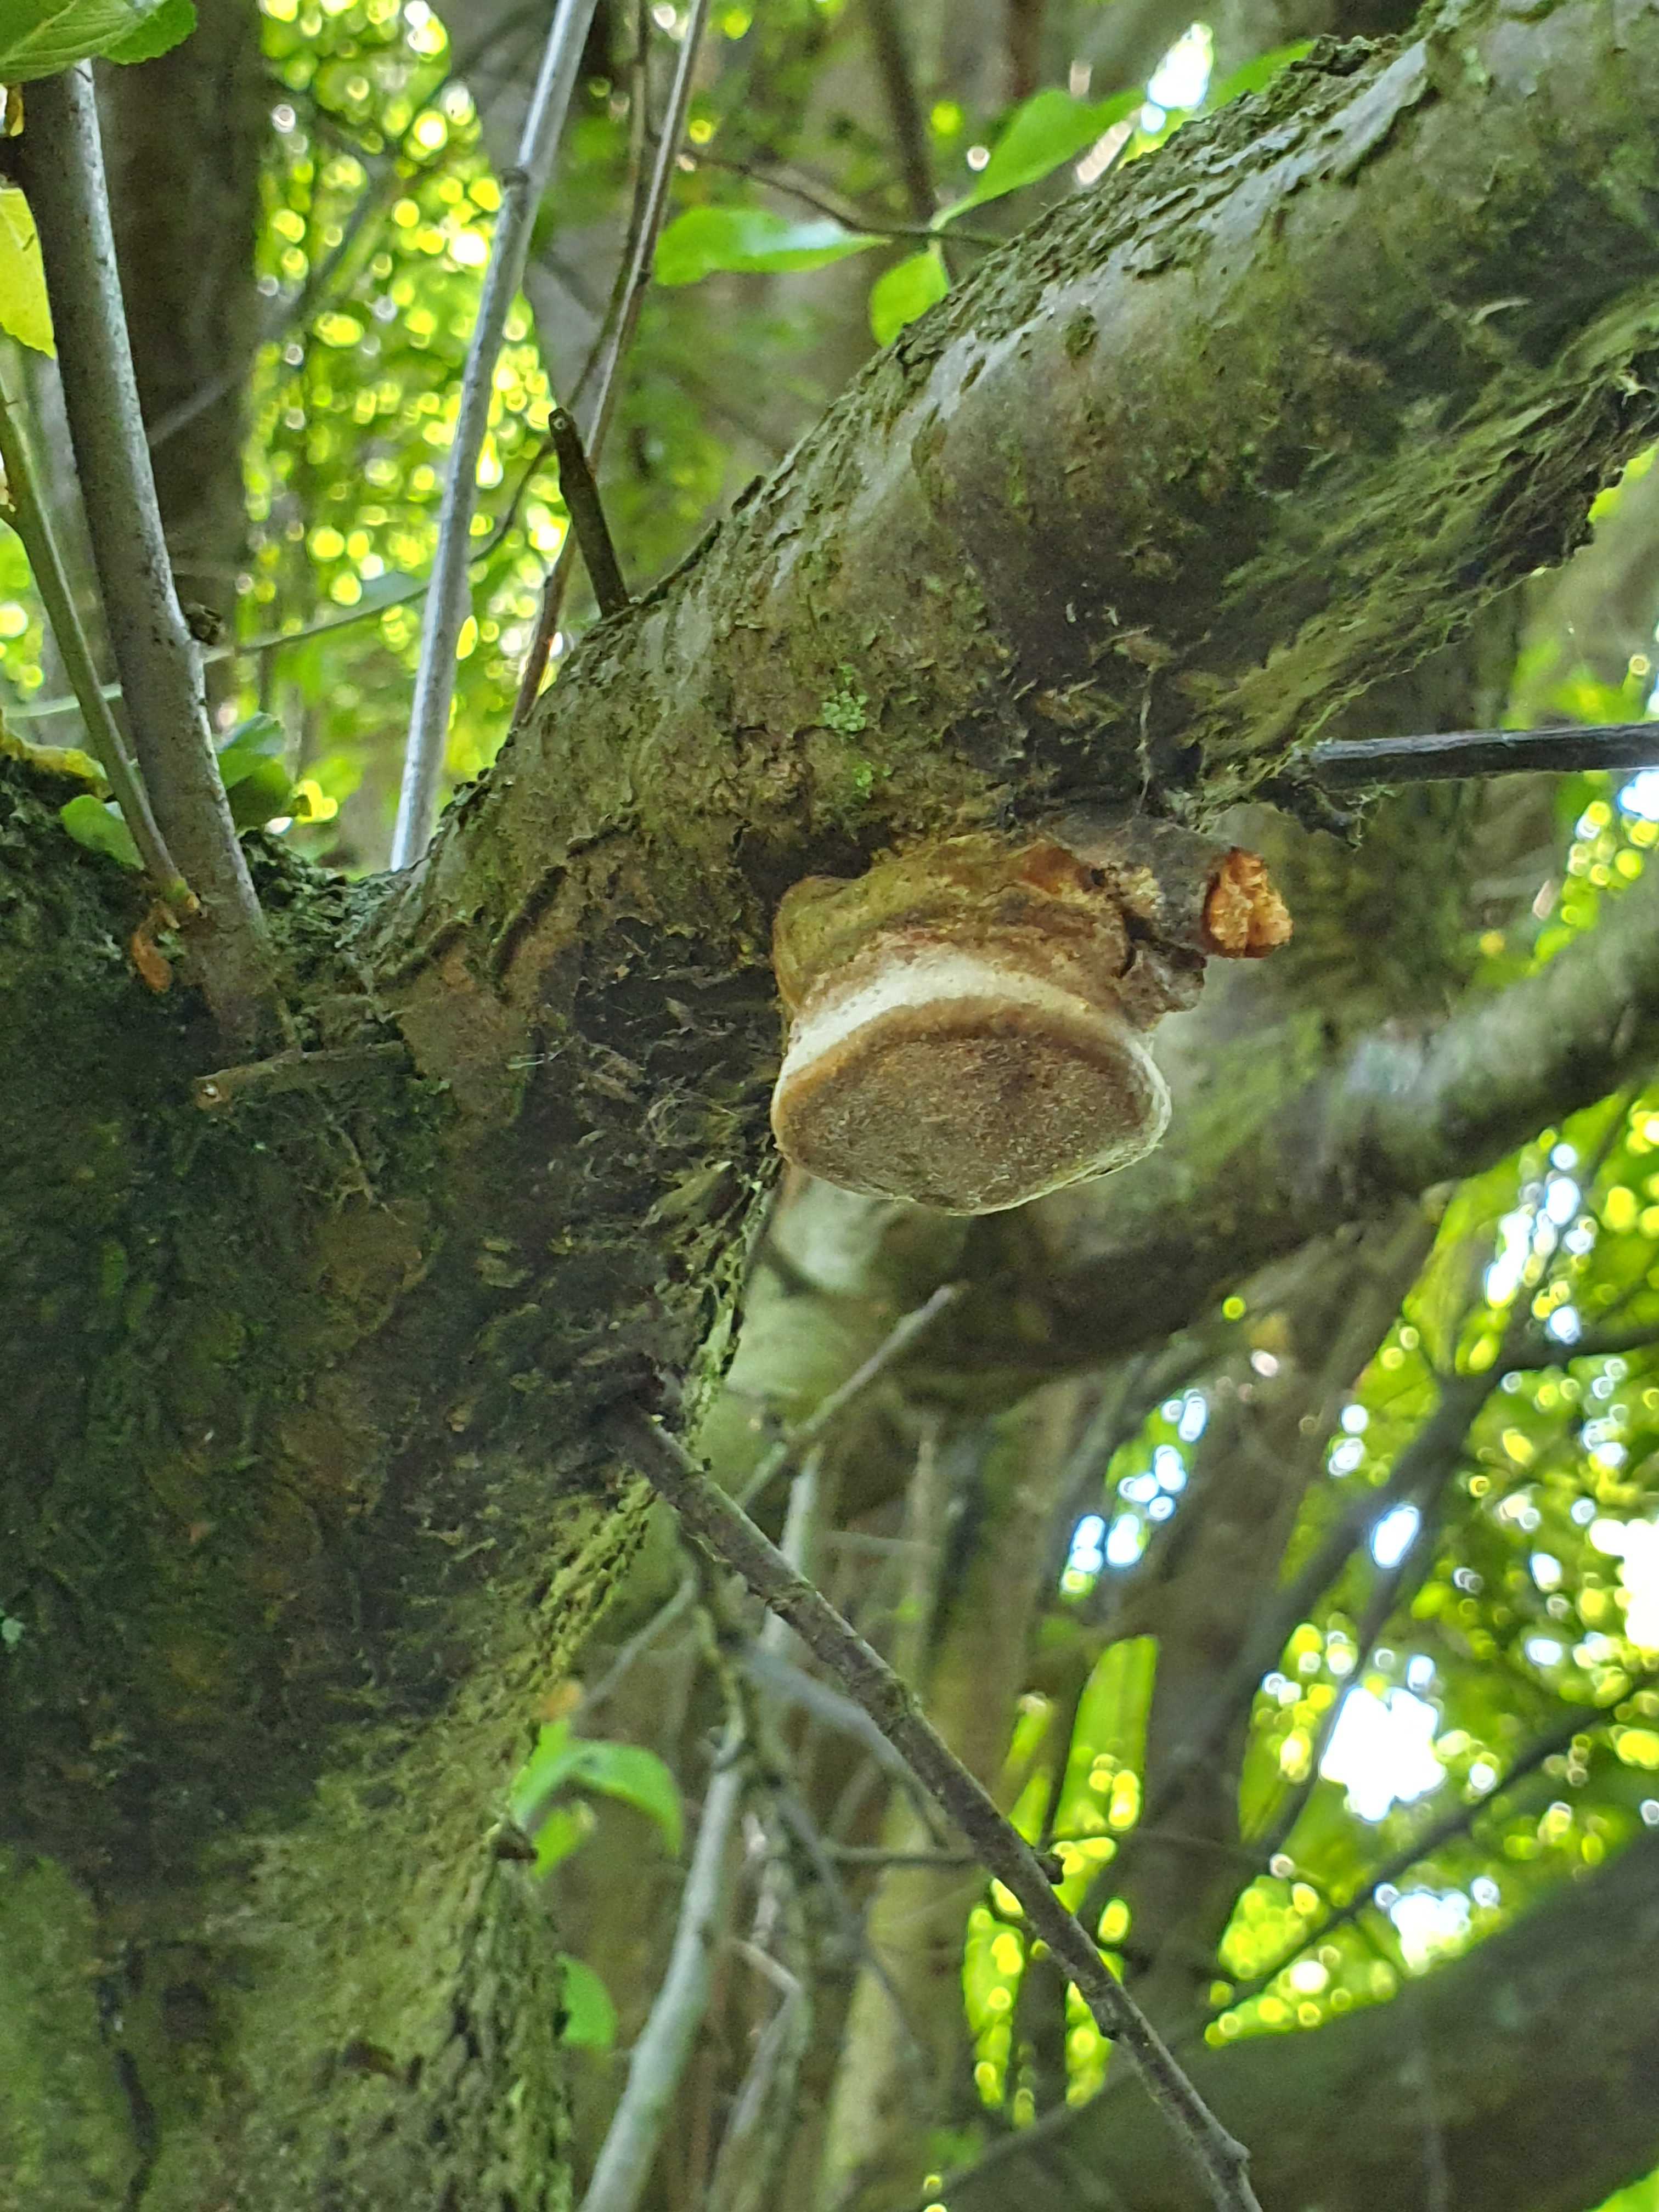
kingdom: Fungi
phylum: Basidiomycota
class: Agaricomycetes
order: Hymenochaetales
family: Hymenochaetaceae
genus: Phellinus
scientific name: Phellinus pomaceus
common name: blomme-ildporesvamp
